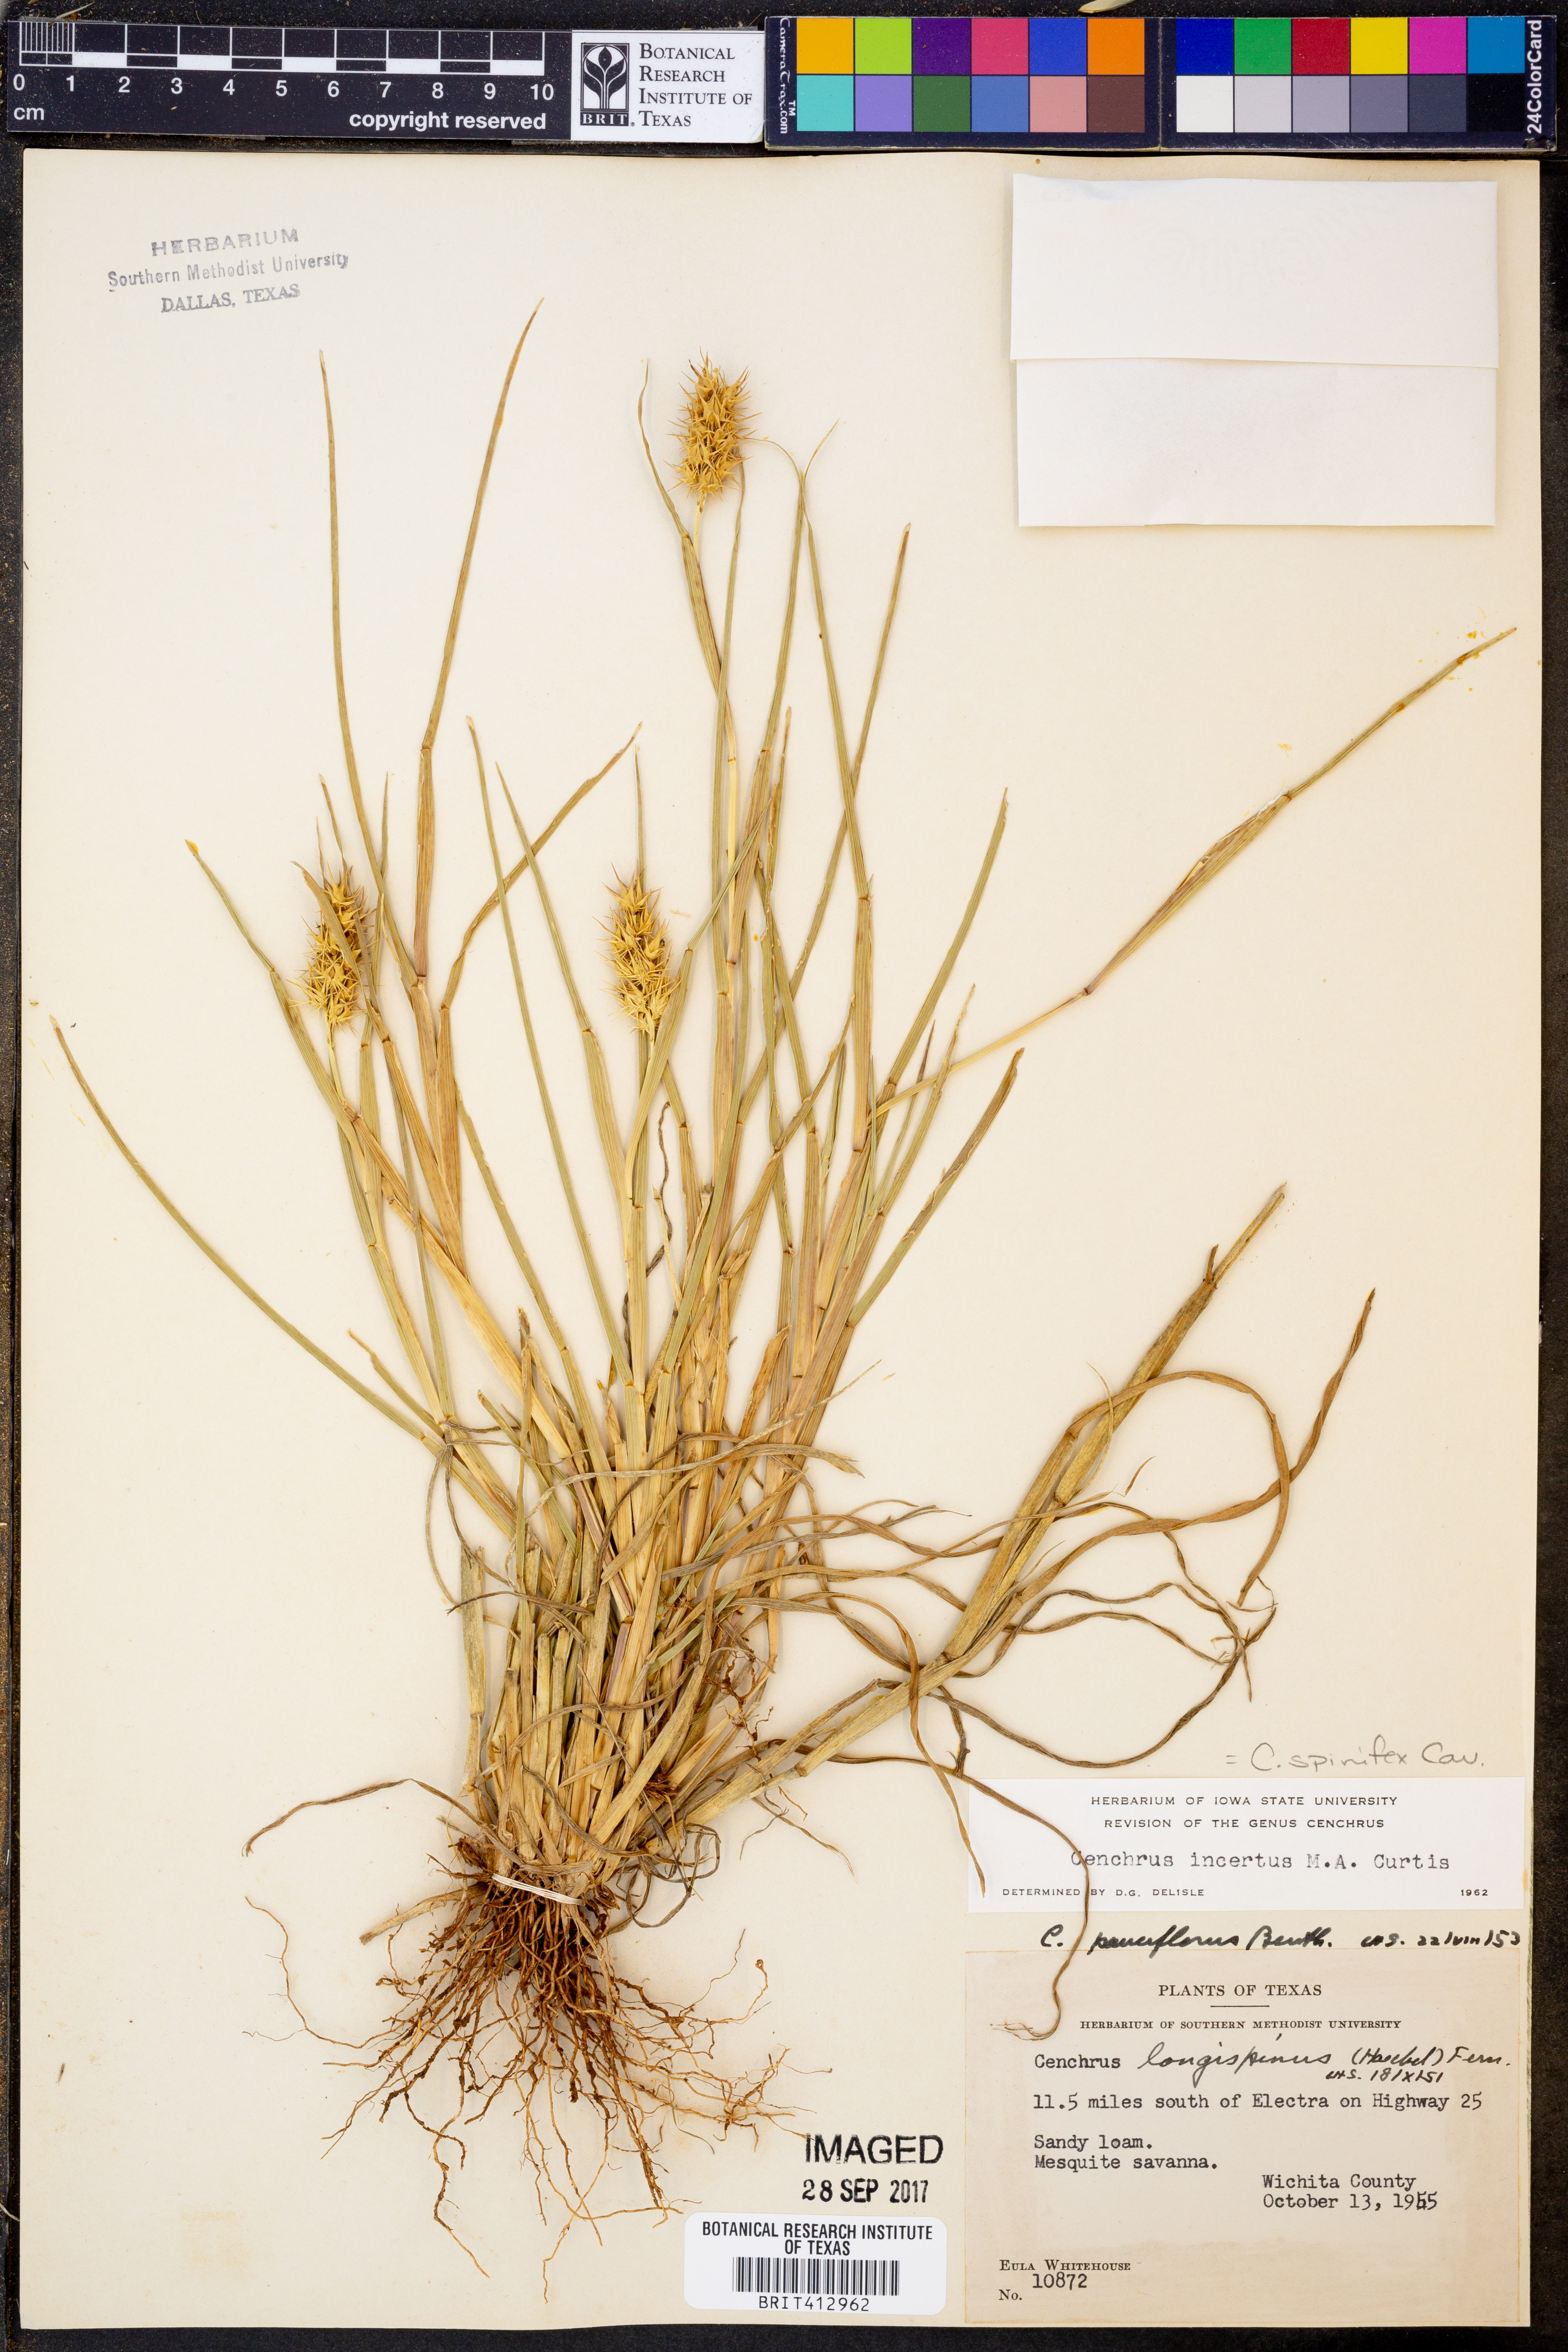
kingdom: Plantae
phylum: Tracheophyta
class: Liliopsida
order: Poales
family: Poaceae
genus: Cenchrus
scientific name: Cenchrus spinifex
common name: Coast sandbur
